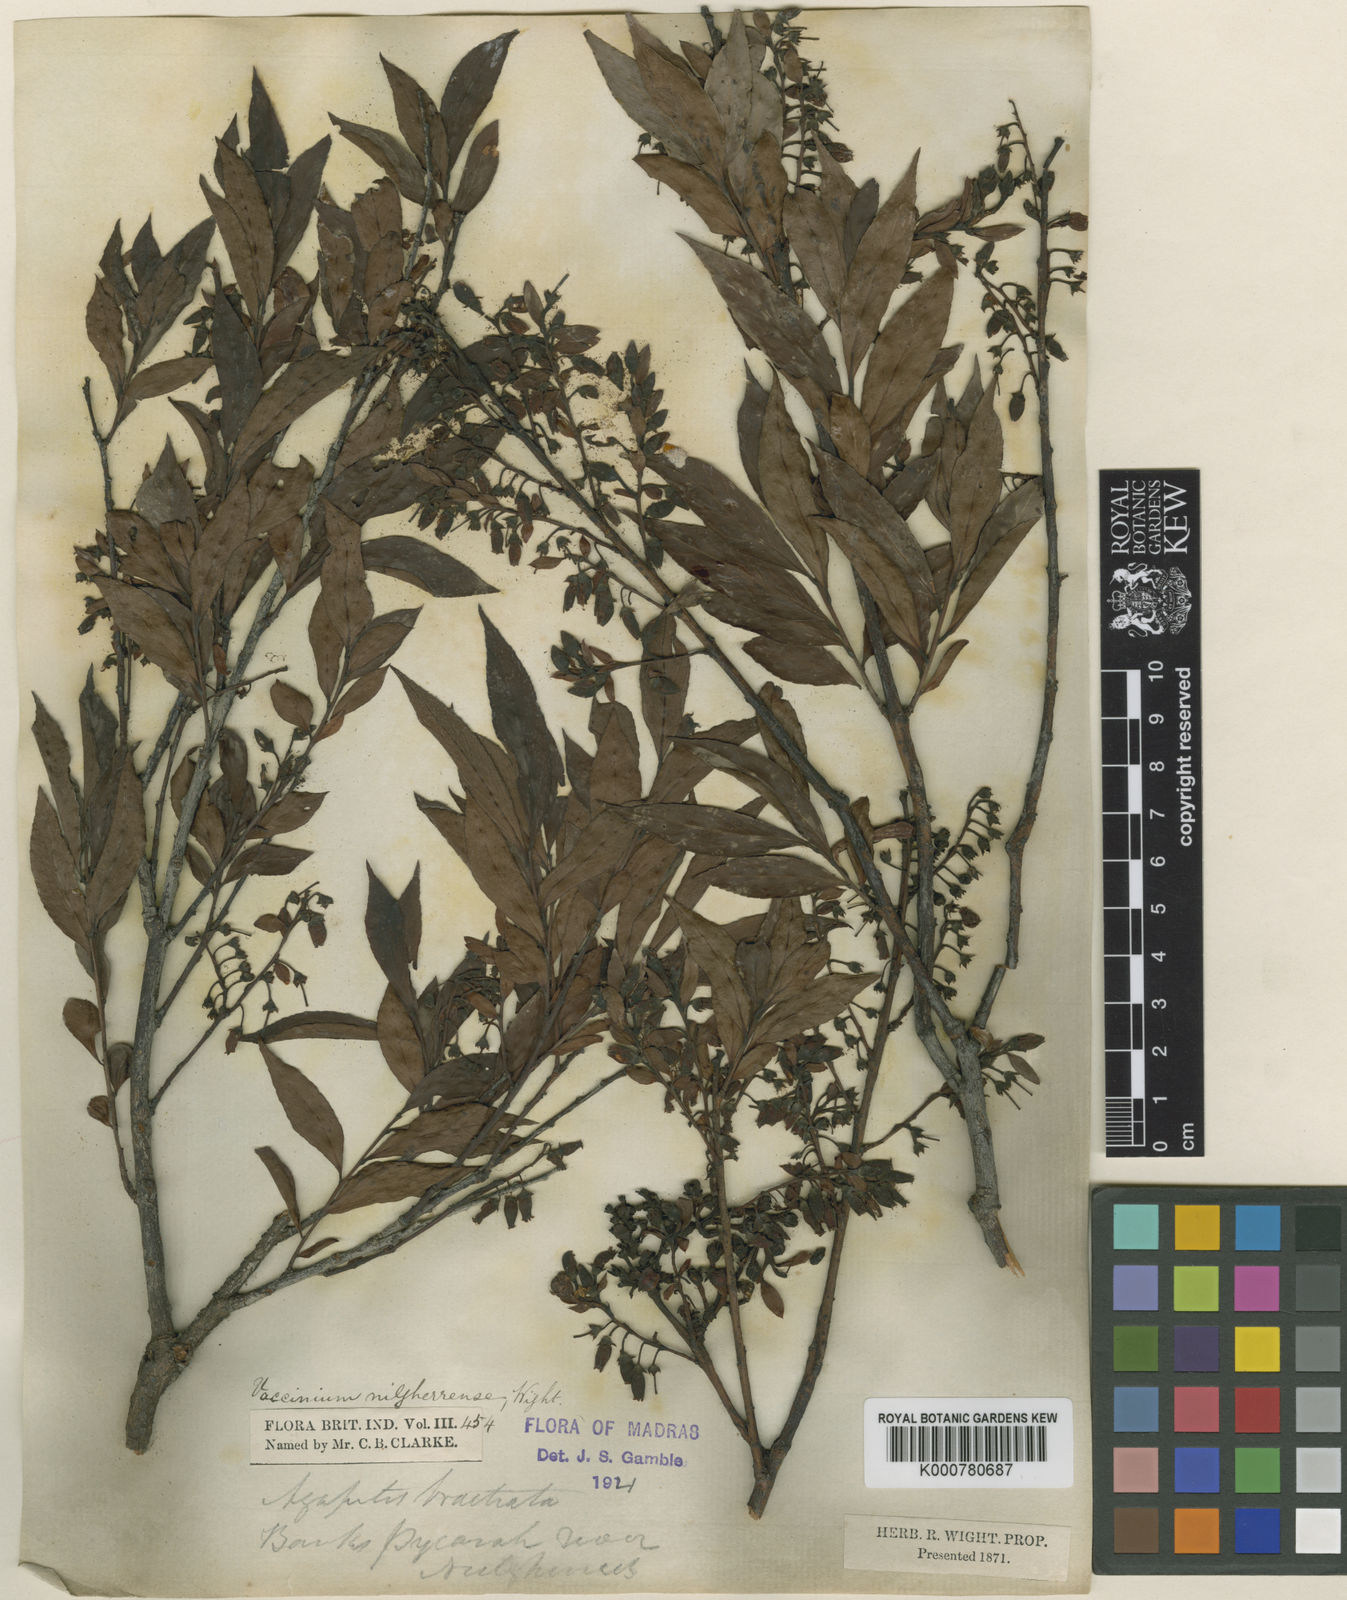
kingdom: Plantae
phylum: Tracheophyta
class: Magnoliopsida
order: Ericales
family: Ericaceae
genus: Vaccinium
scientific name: Vaccinium neilgherrense
